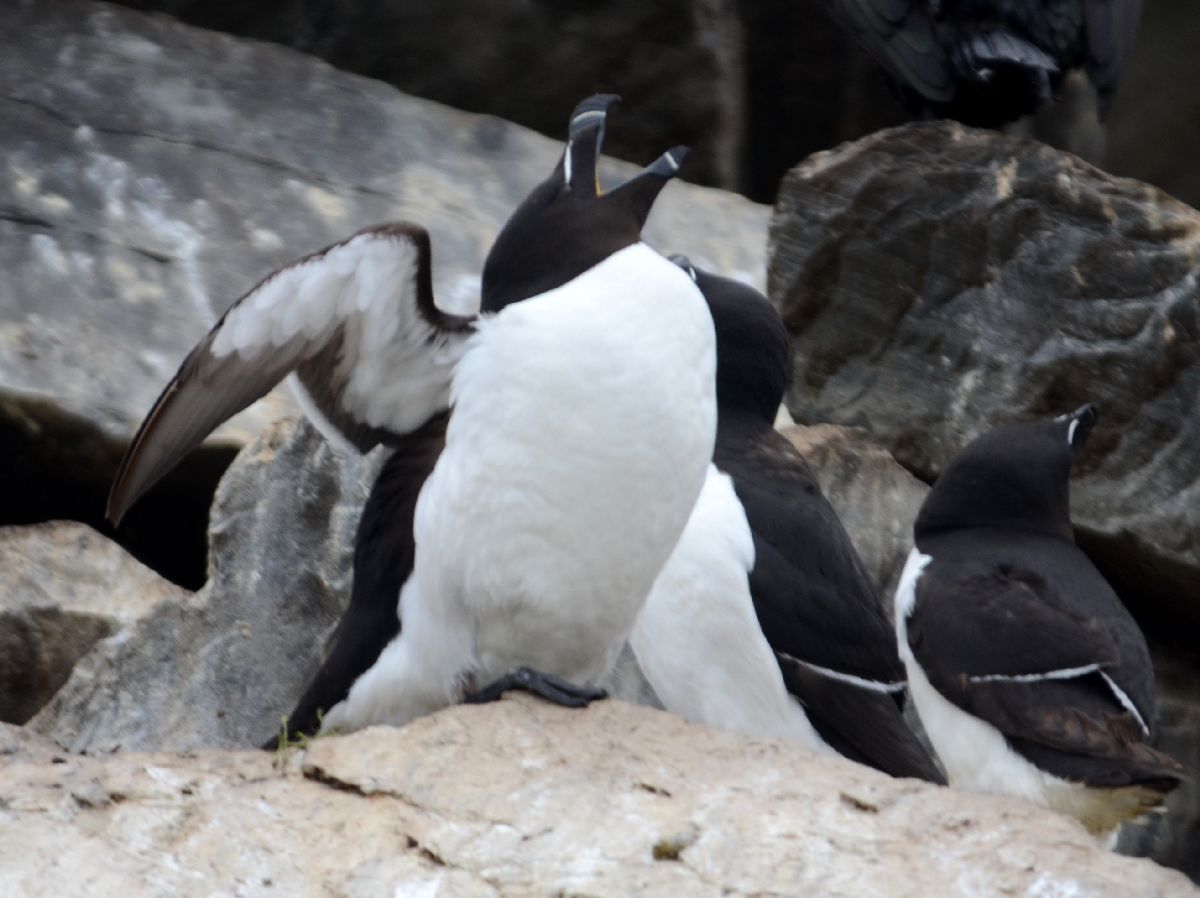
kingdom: Animalia
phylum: Chordata
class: Aves
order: Charadriiformes
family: Alcidae
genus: Alca
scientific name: Alca torda
